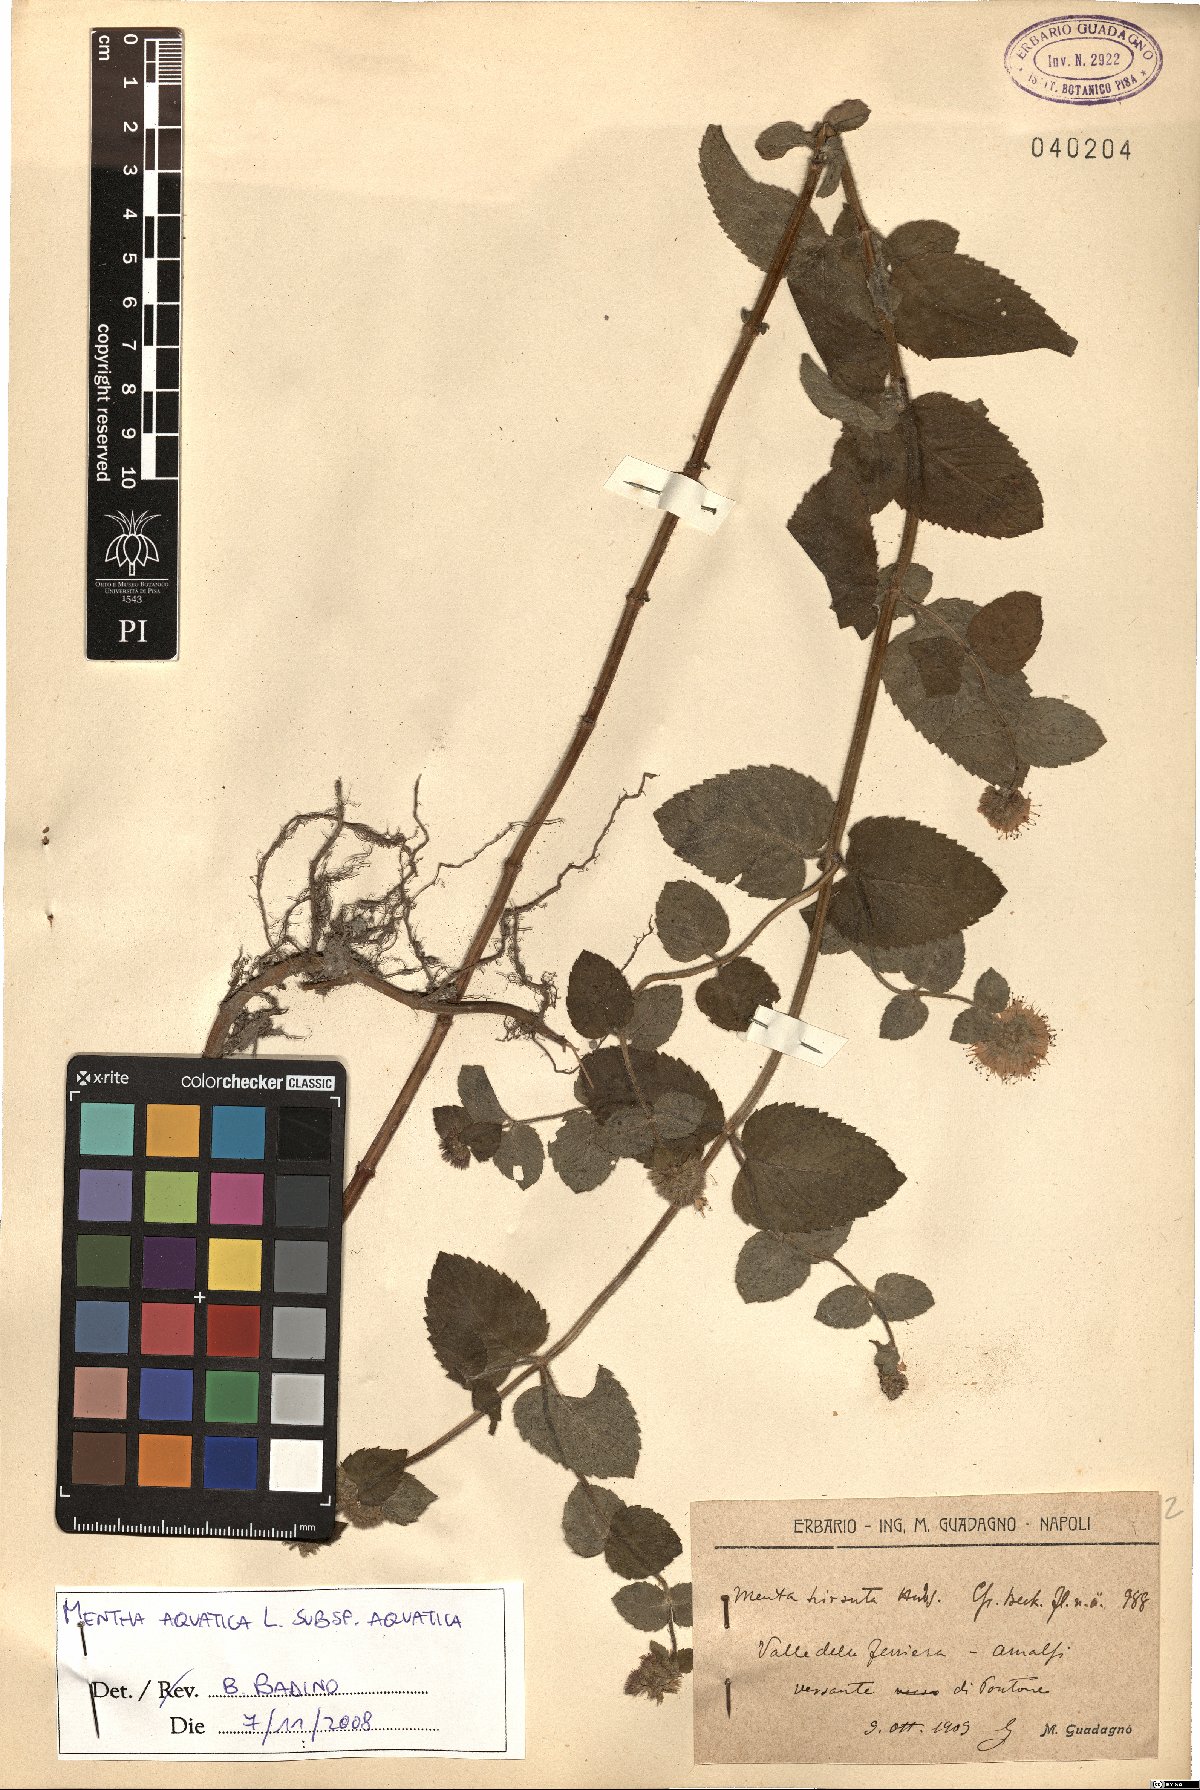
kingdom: Plantae
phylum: Tracheophyta
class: Magnoliopsida
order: Lamiales
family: Lamiaceae
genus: Mentha
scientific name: Mentha aquatica
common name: Water mint
